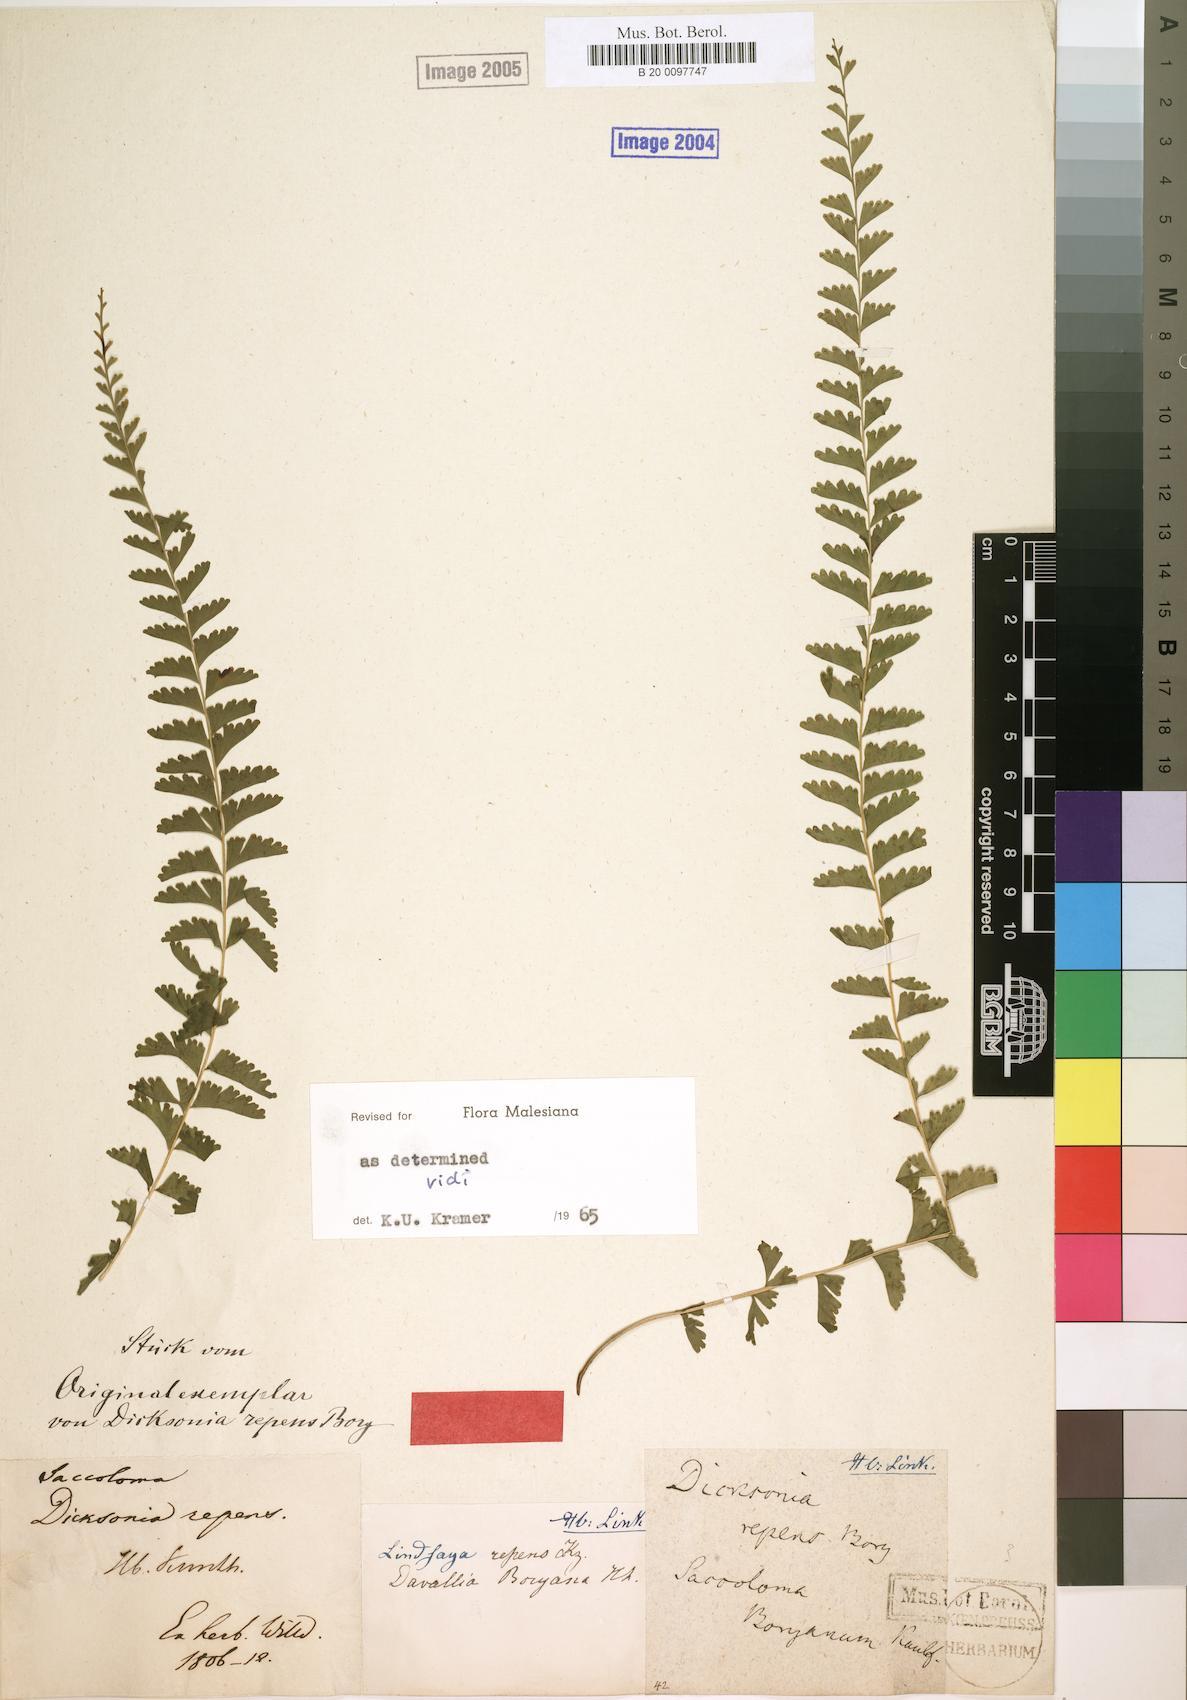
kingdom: Plantae
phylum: Tracheophyta
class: Polypodiopsida
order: Polypodiales
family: Lindsaeaceae
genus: Lindsaea
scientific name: Lindsaea repens
